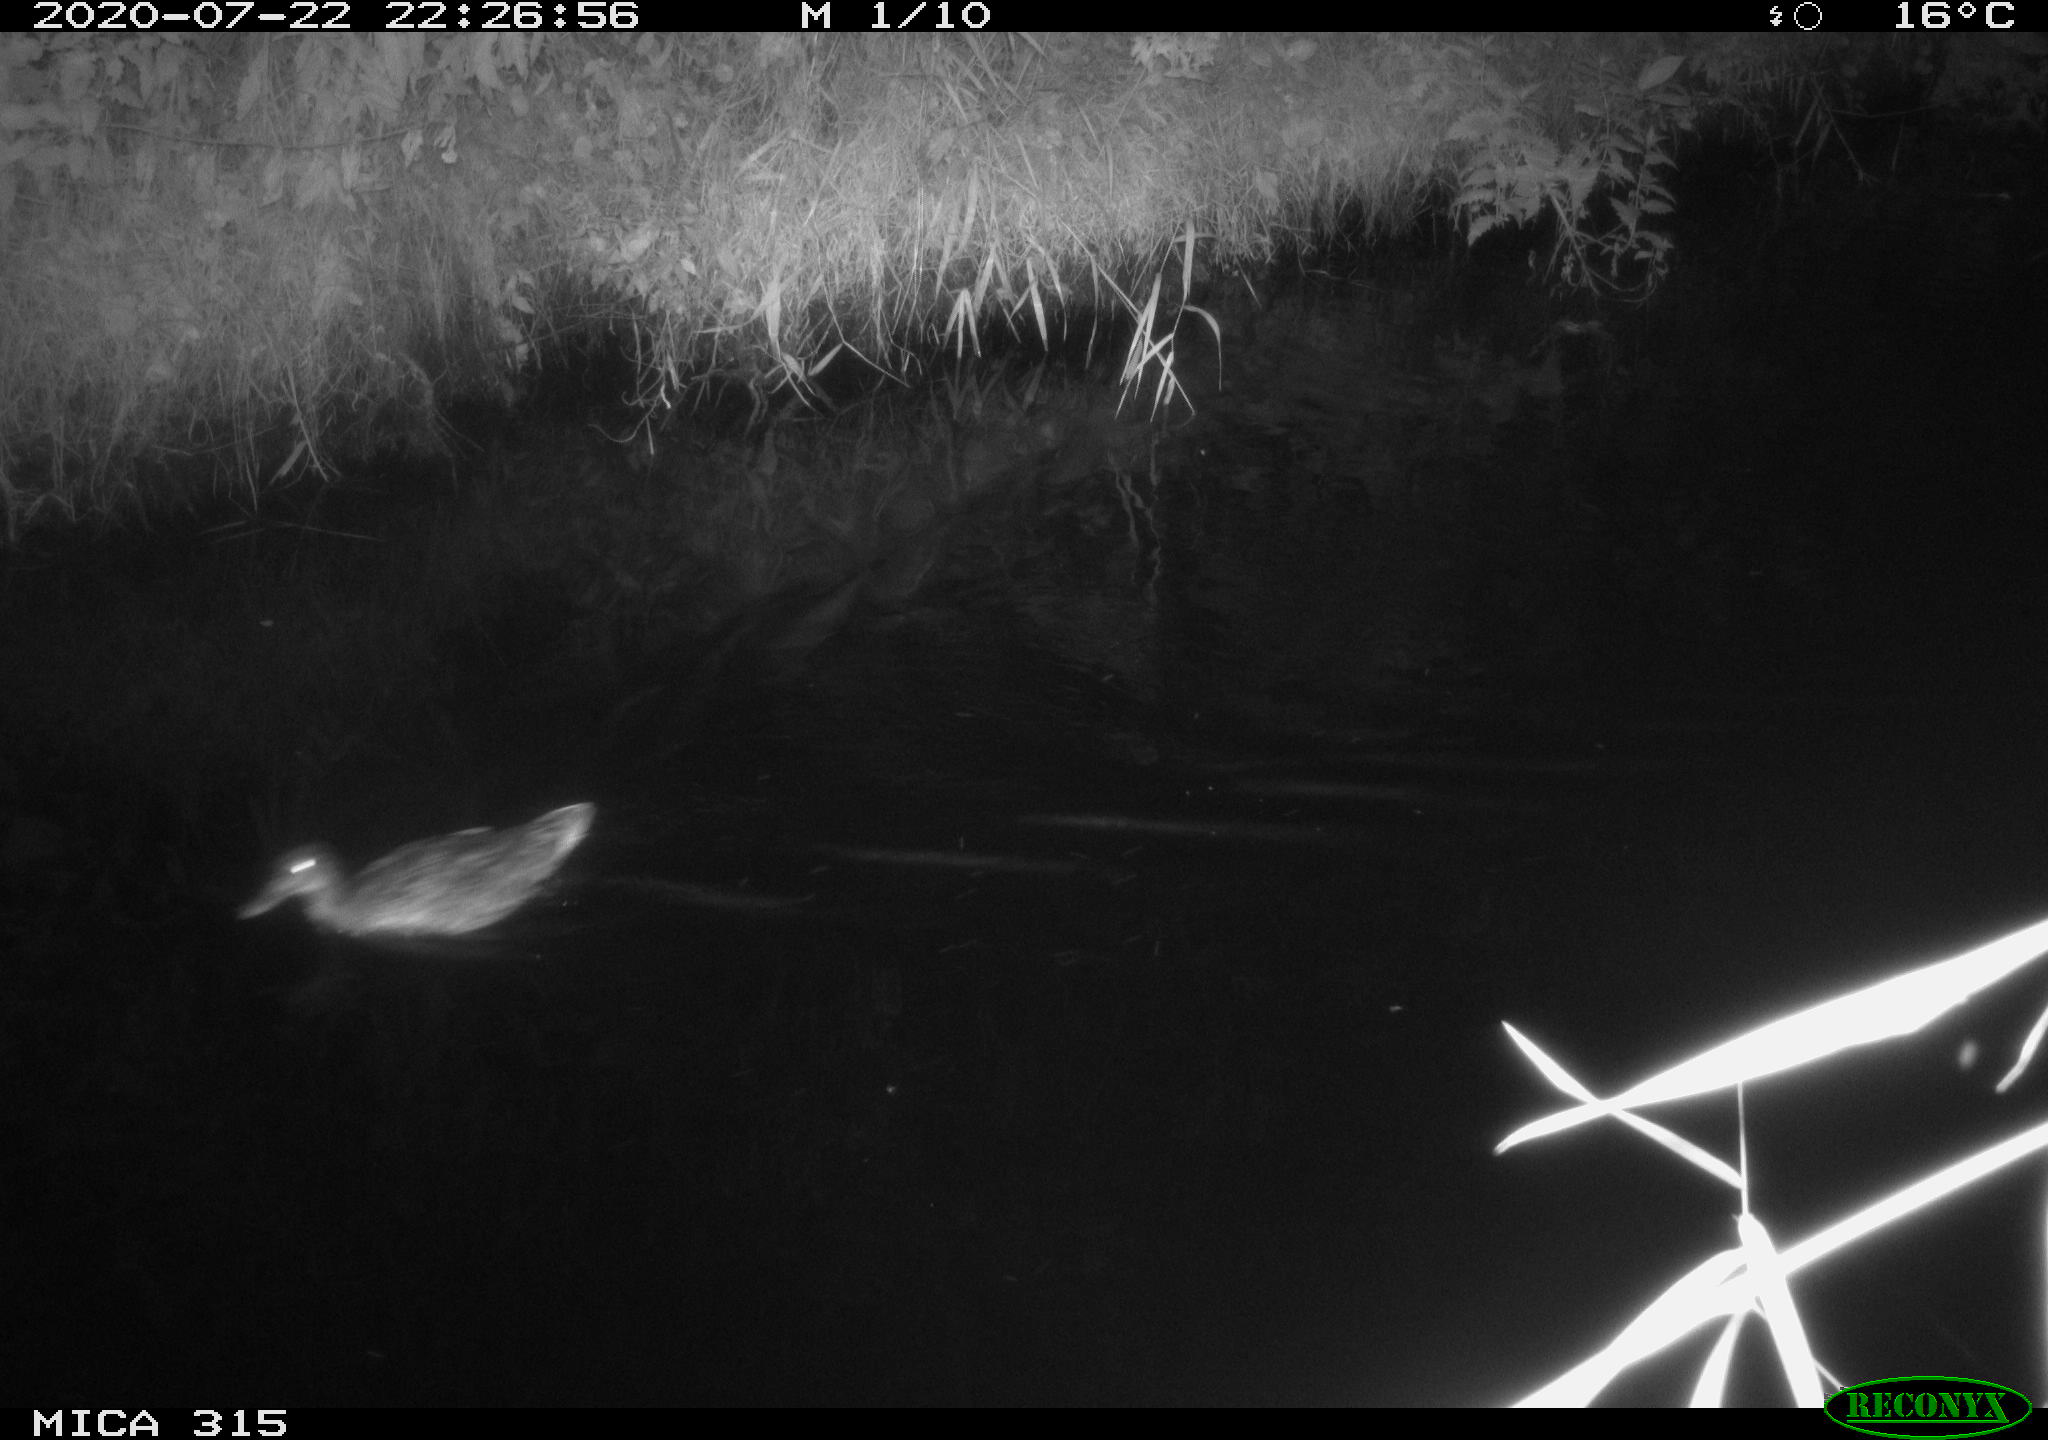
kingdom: Animalia
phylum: Chordata
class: Aves
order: Anseriformes
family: Anatidae
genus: Anas
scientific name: Anas platyrhynchos
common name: Mallard
